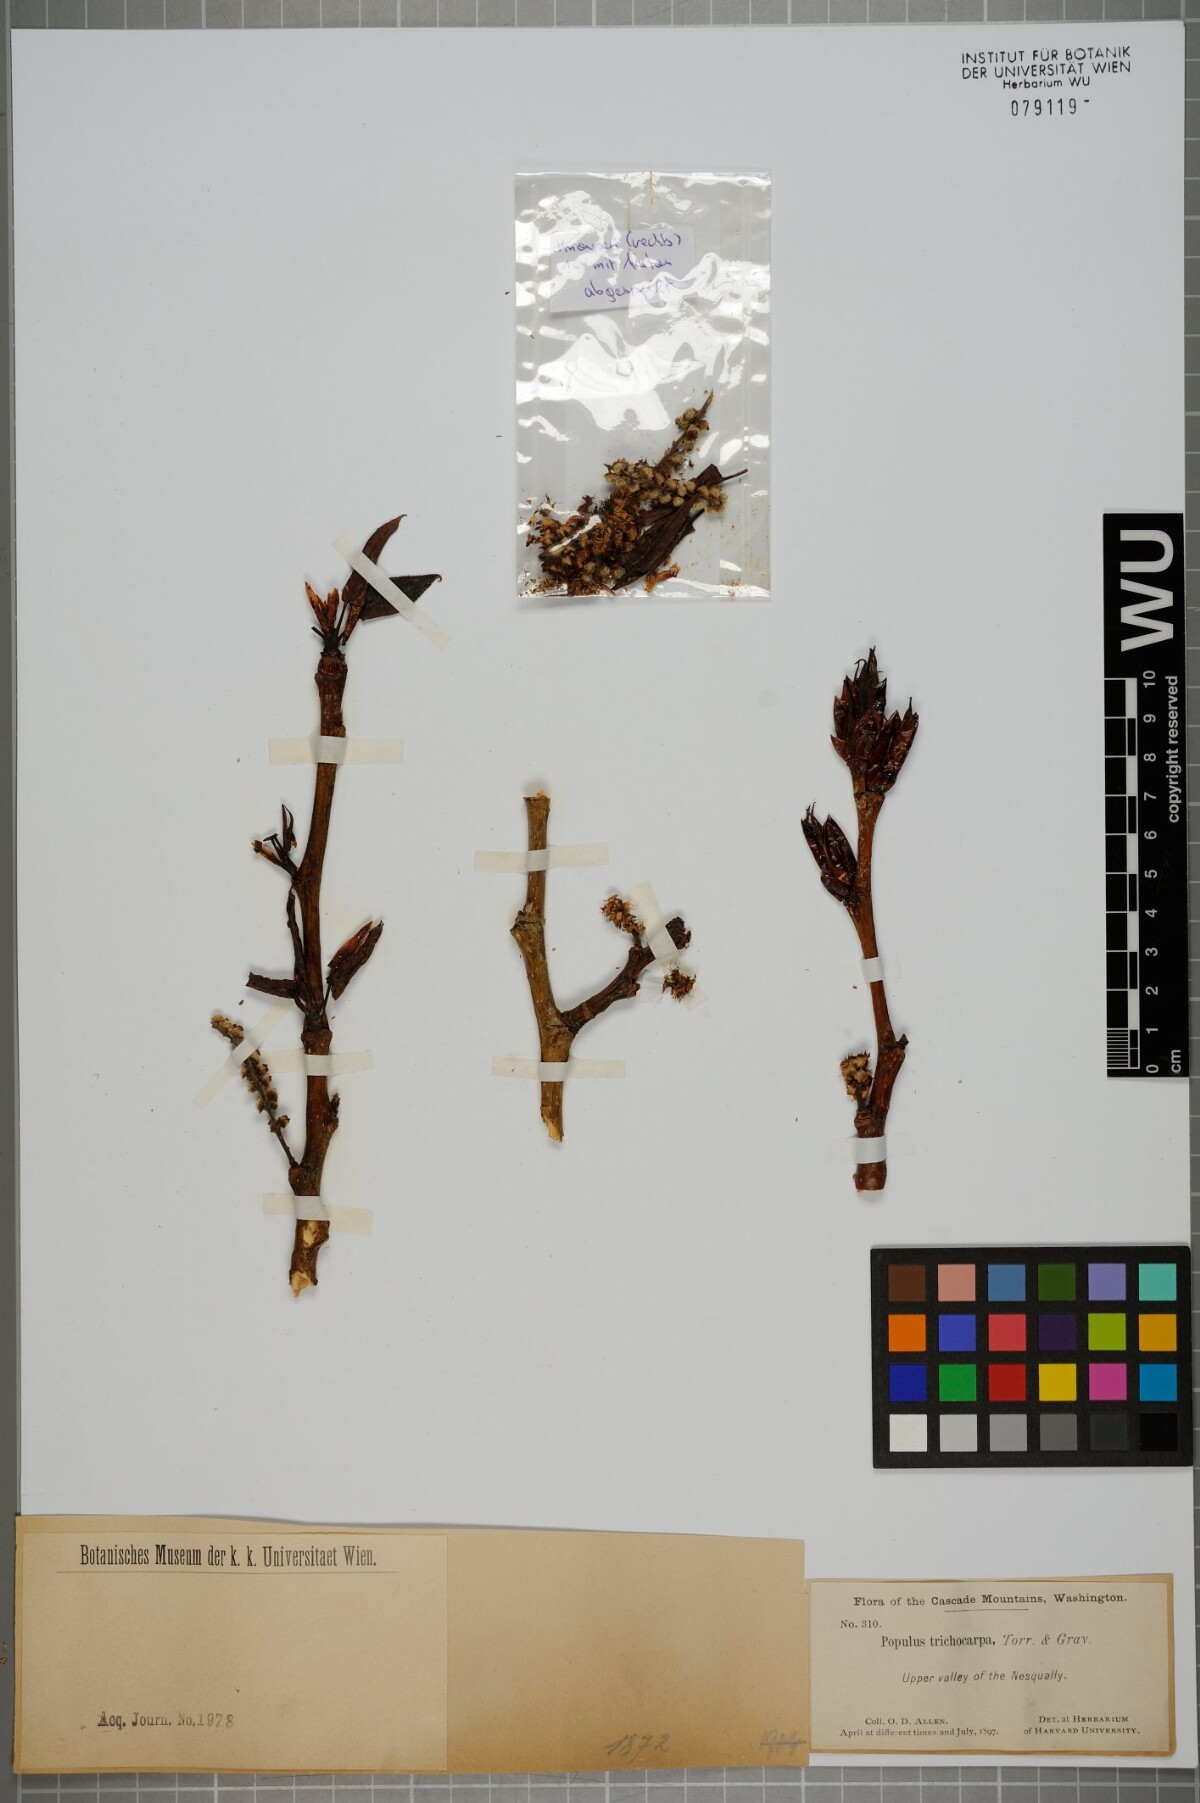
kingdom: Plantae
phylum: Tracheophyta
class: Magnoliopsida
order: Malpighiales
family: Salicaceae
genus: Populus
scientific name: Populus trichocarpa
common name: Black cottonwood
